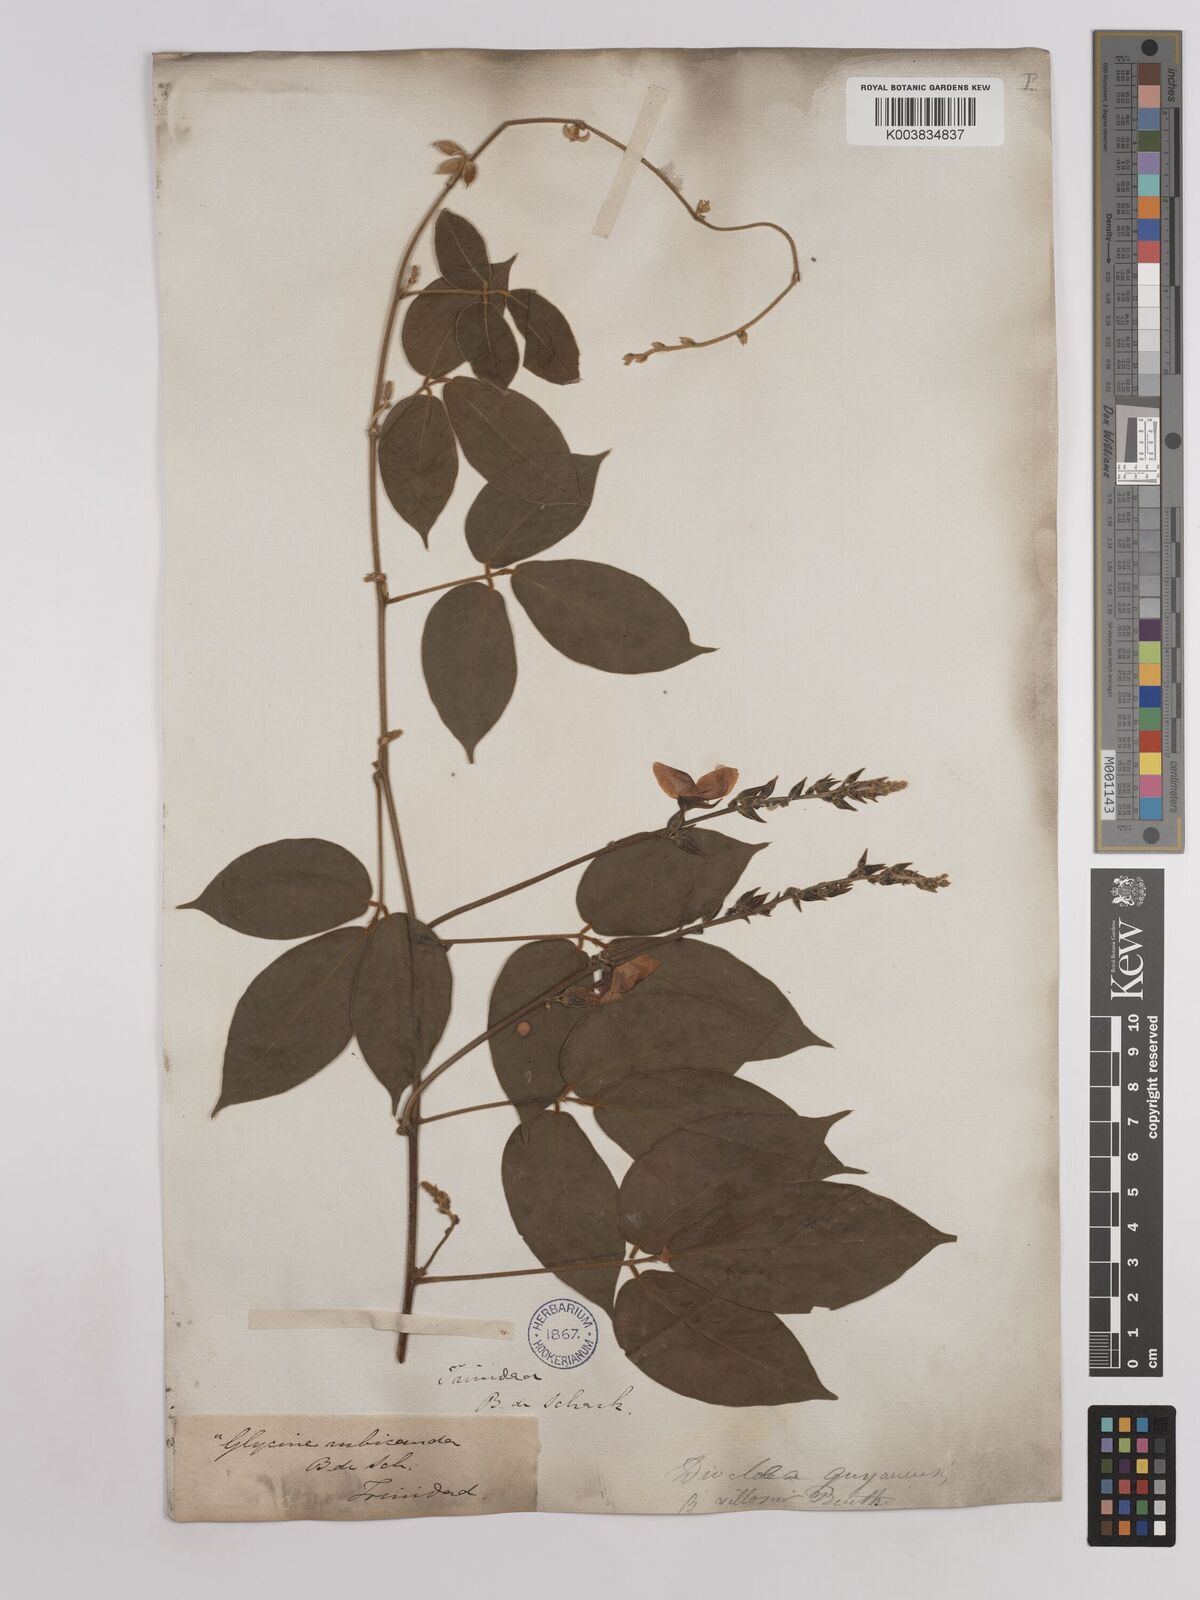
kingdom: Plantae
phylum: Tracheophyta
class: Magnoliopsida
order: Fabales
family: Fabaceae
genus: Dioclea
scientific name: Dioclea guianensis
